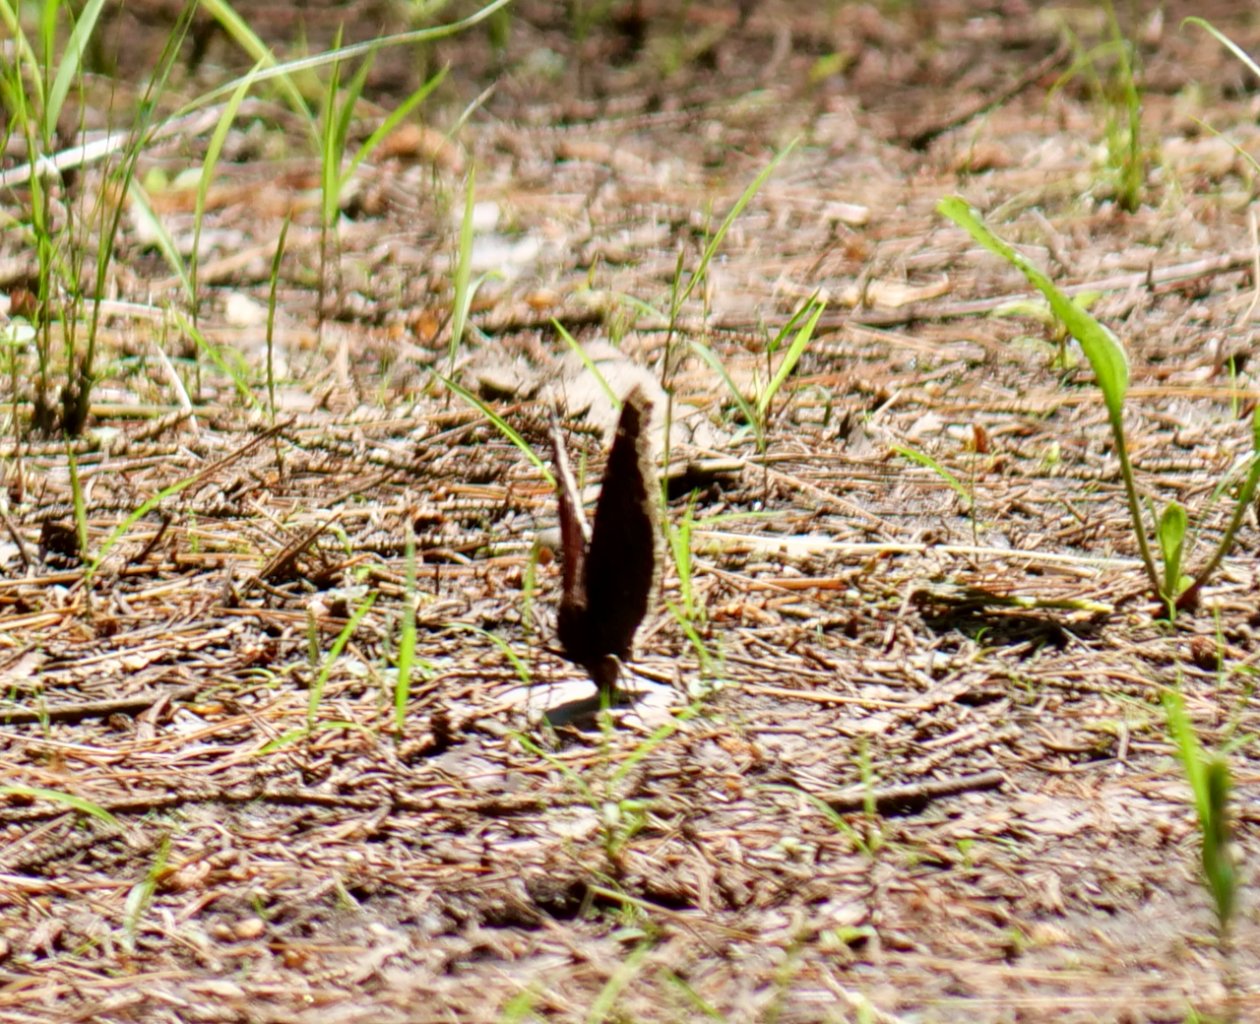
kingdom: Animalia
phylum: Arthropoda
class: Insecta
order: Lepidoptera
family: Nymphalidae
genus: Nymphalis
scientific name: Nymphalis antiopa
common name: Mourning Cloak
